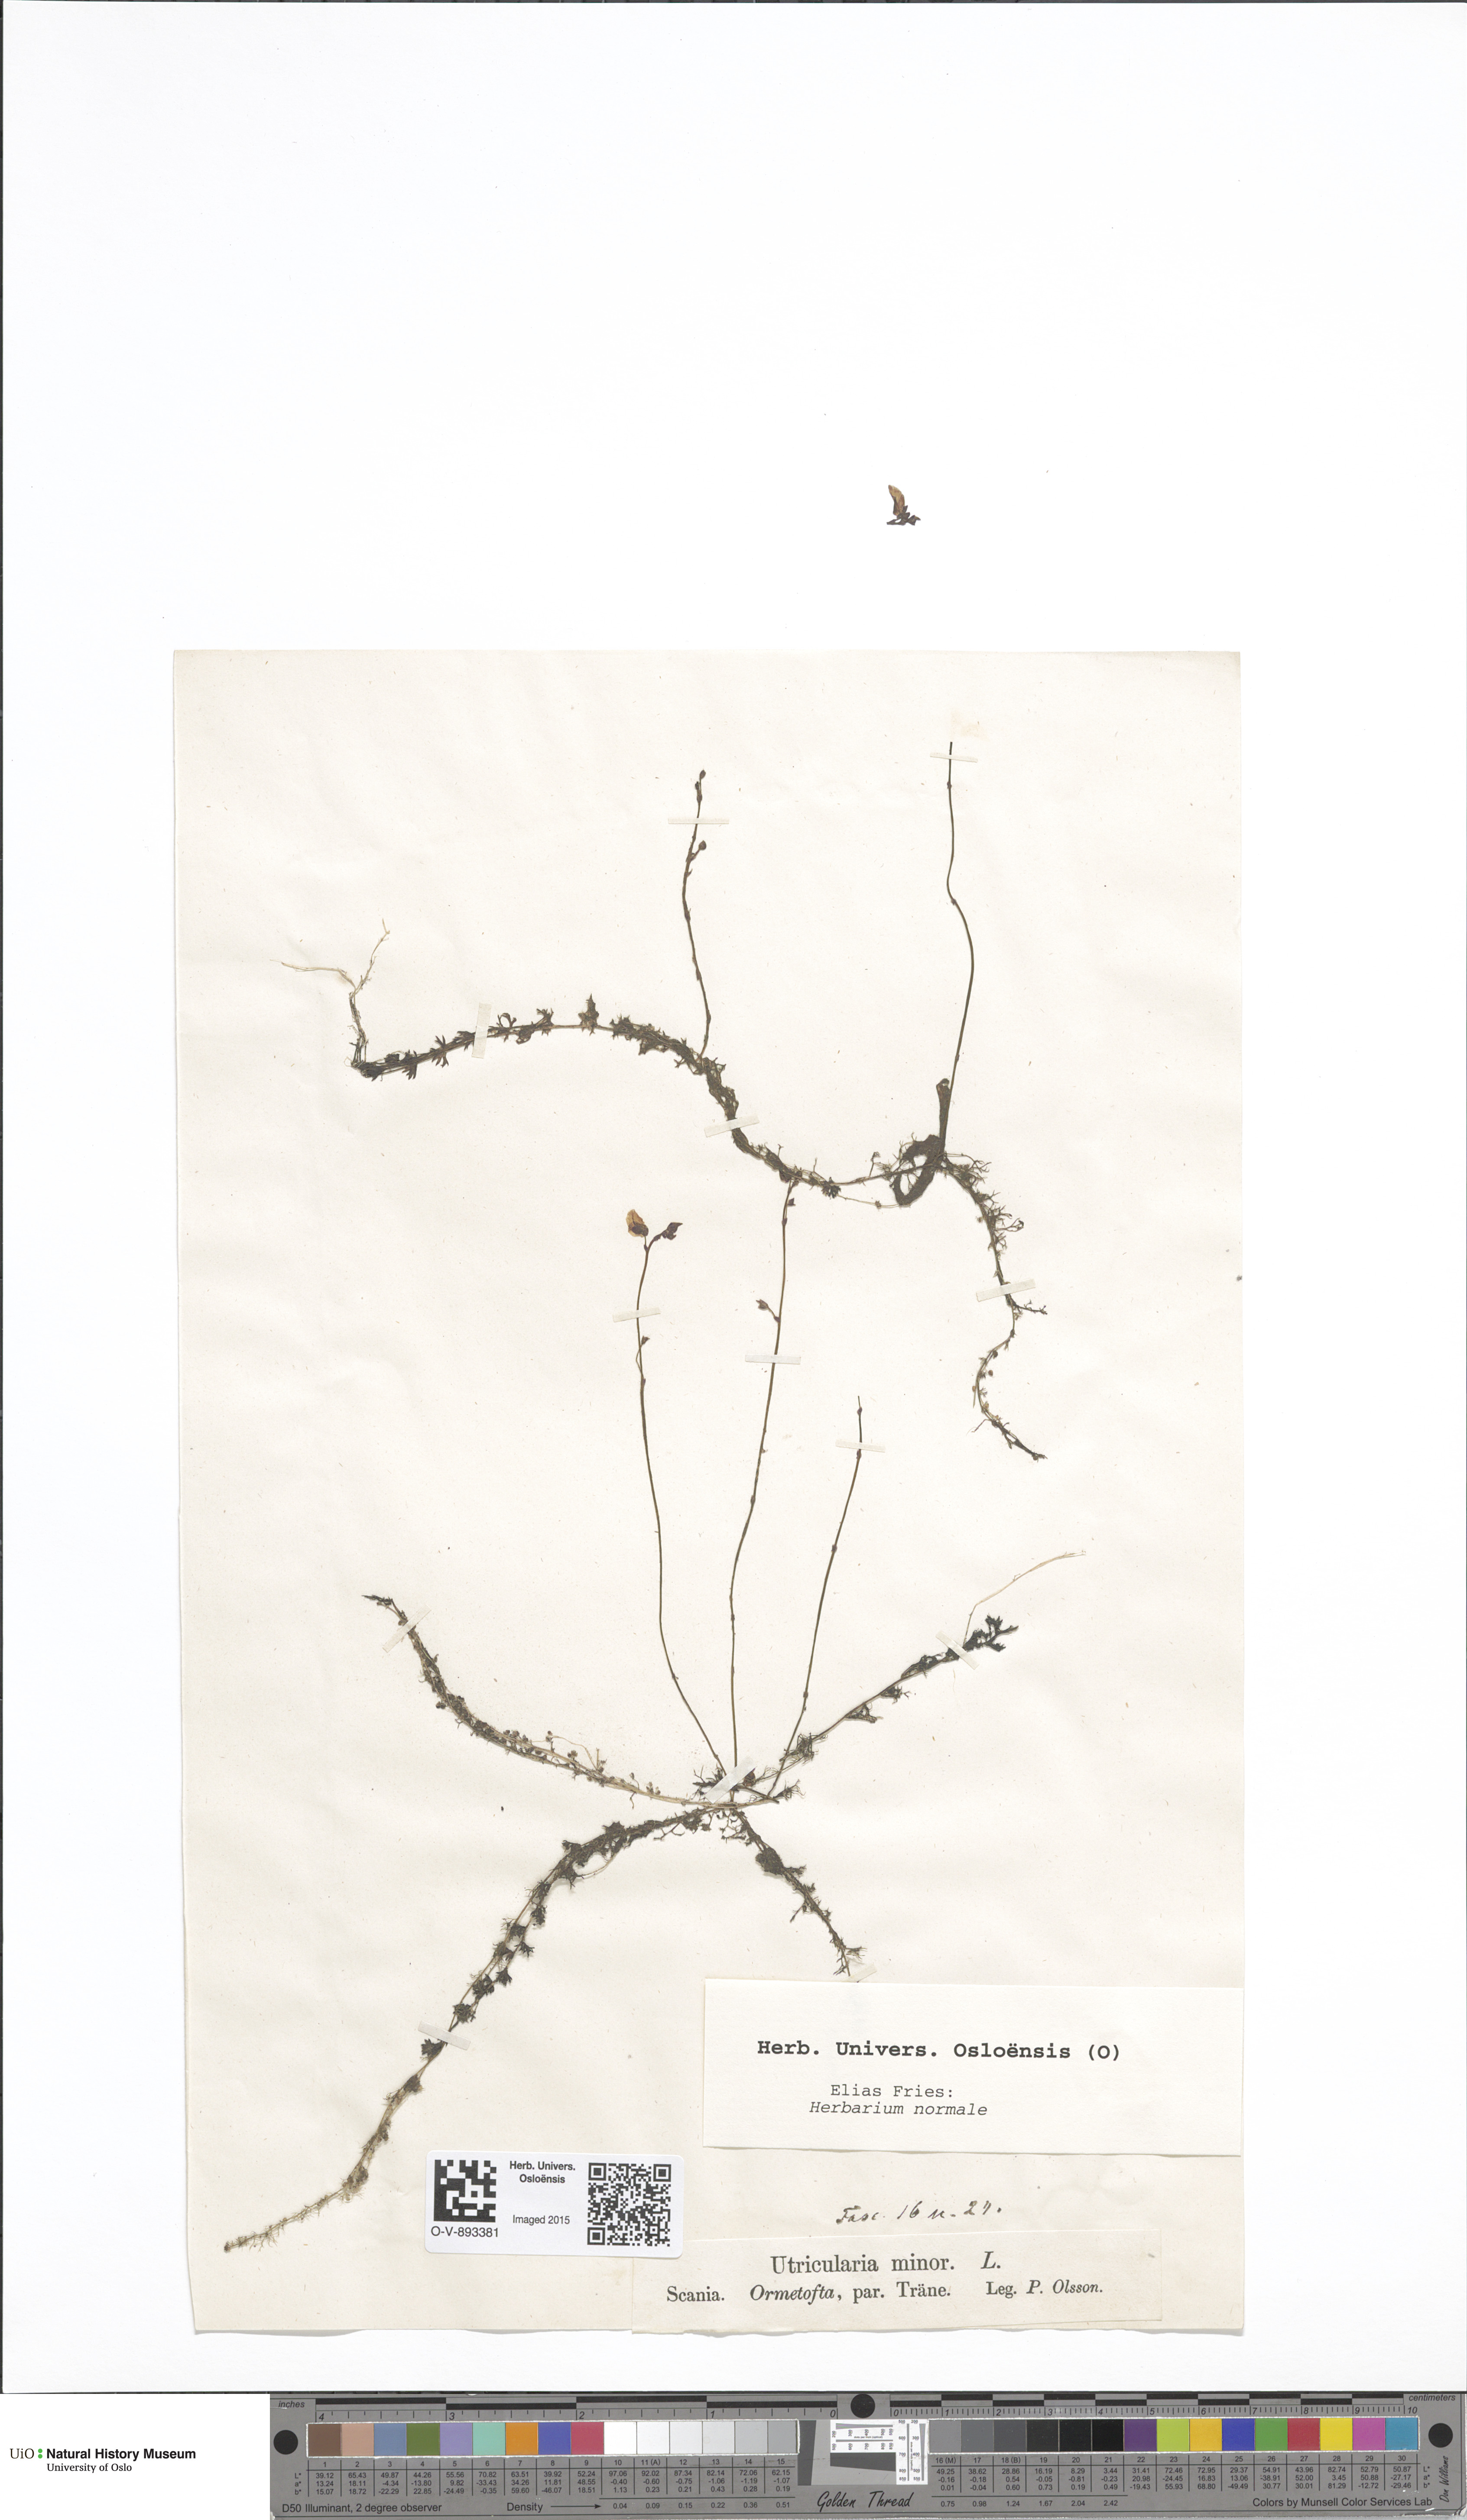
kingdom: Plantae
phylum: Tracheophyta
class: Magnoliopsida
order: Lamiales
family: Lentibulariaceae
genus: Utricularia
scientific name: Utricularia minor
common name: Lesser bladderwort
